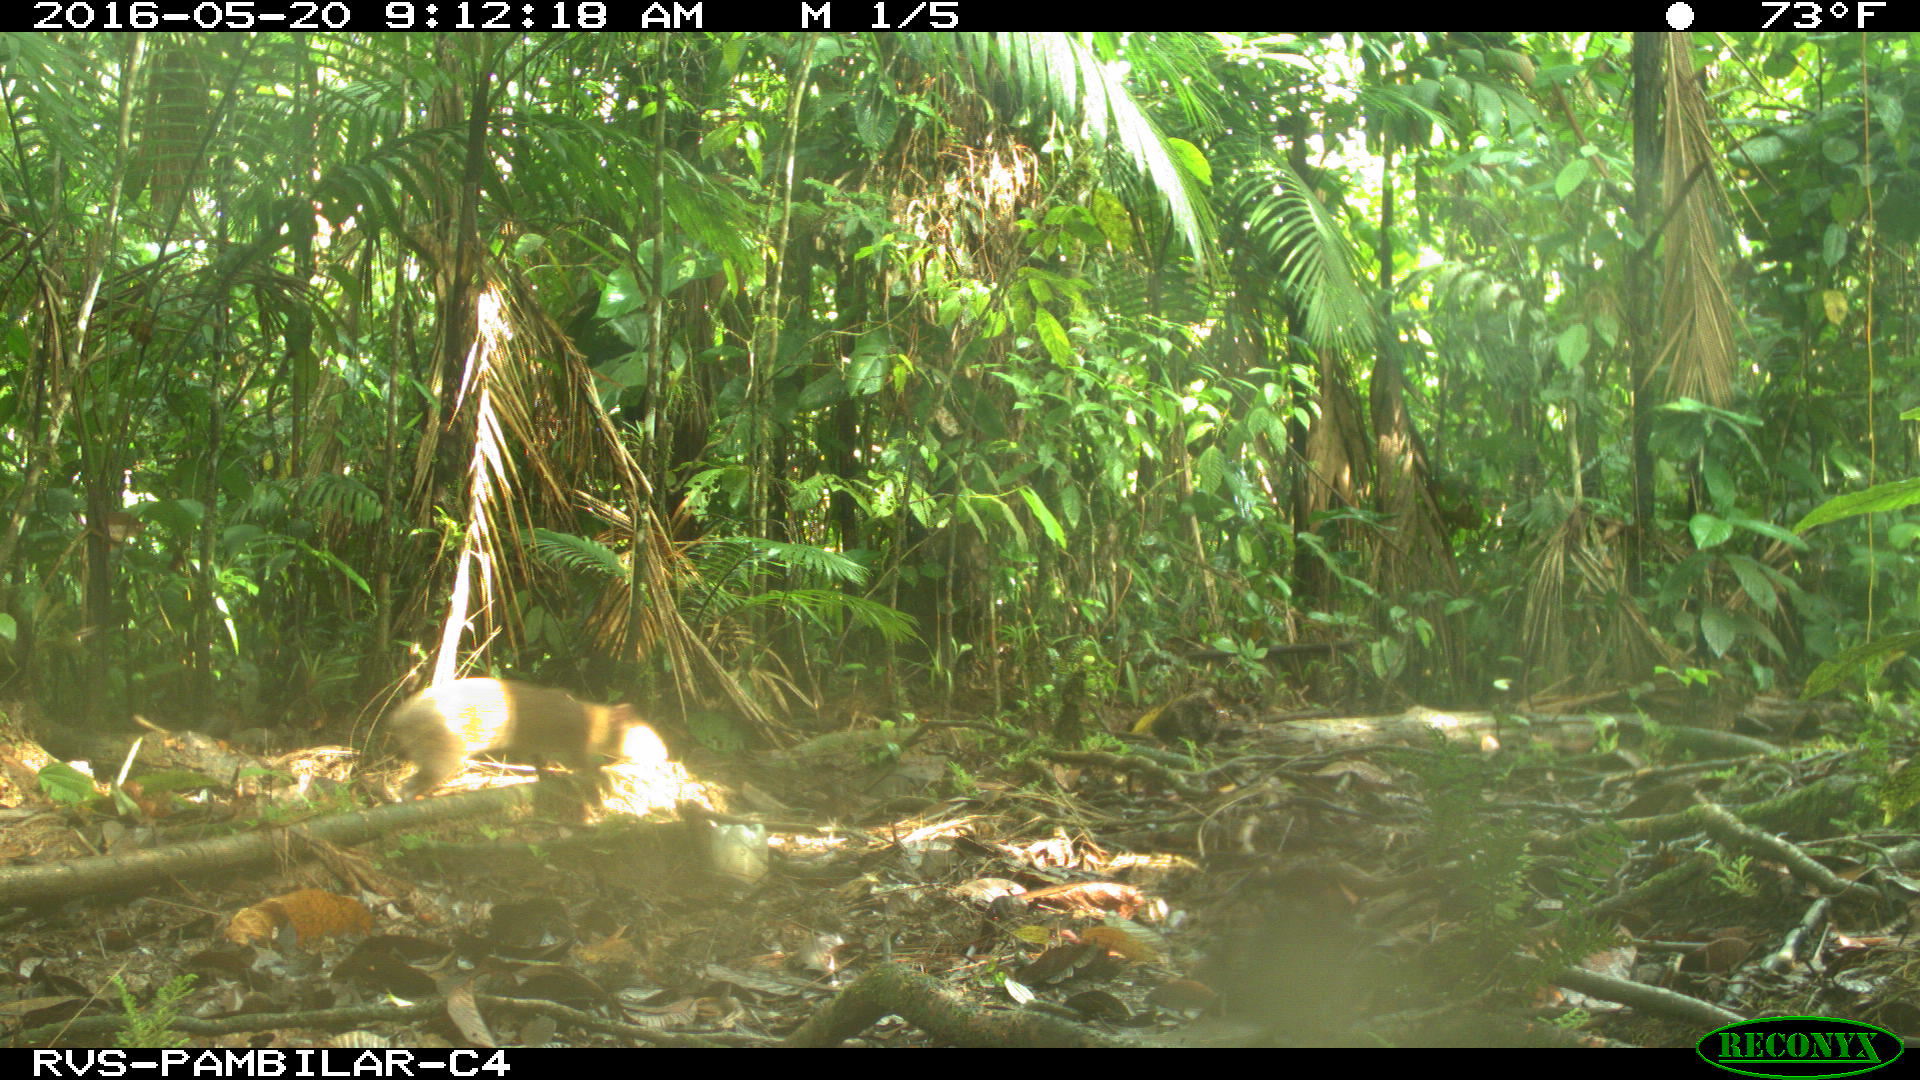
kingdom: Animalia
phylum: Chordata
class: Mammalia
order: Rodentia
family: Dasyproctidae
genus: Dasyprocta
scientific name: Dasyprocta punctata
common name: Central american agouti
